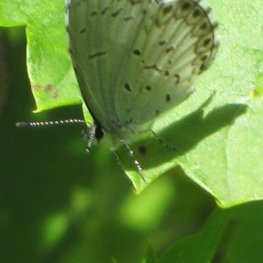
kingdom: Animalia
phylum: Arthropoda
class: Insecta
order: Lepidoptera
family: Lycaenidae
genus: Cyaniris
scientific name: Cyaniris neglecta
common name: Summer Azure
